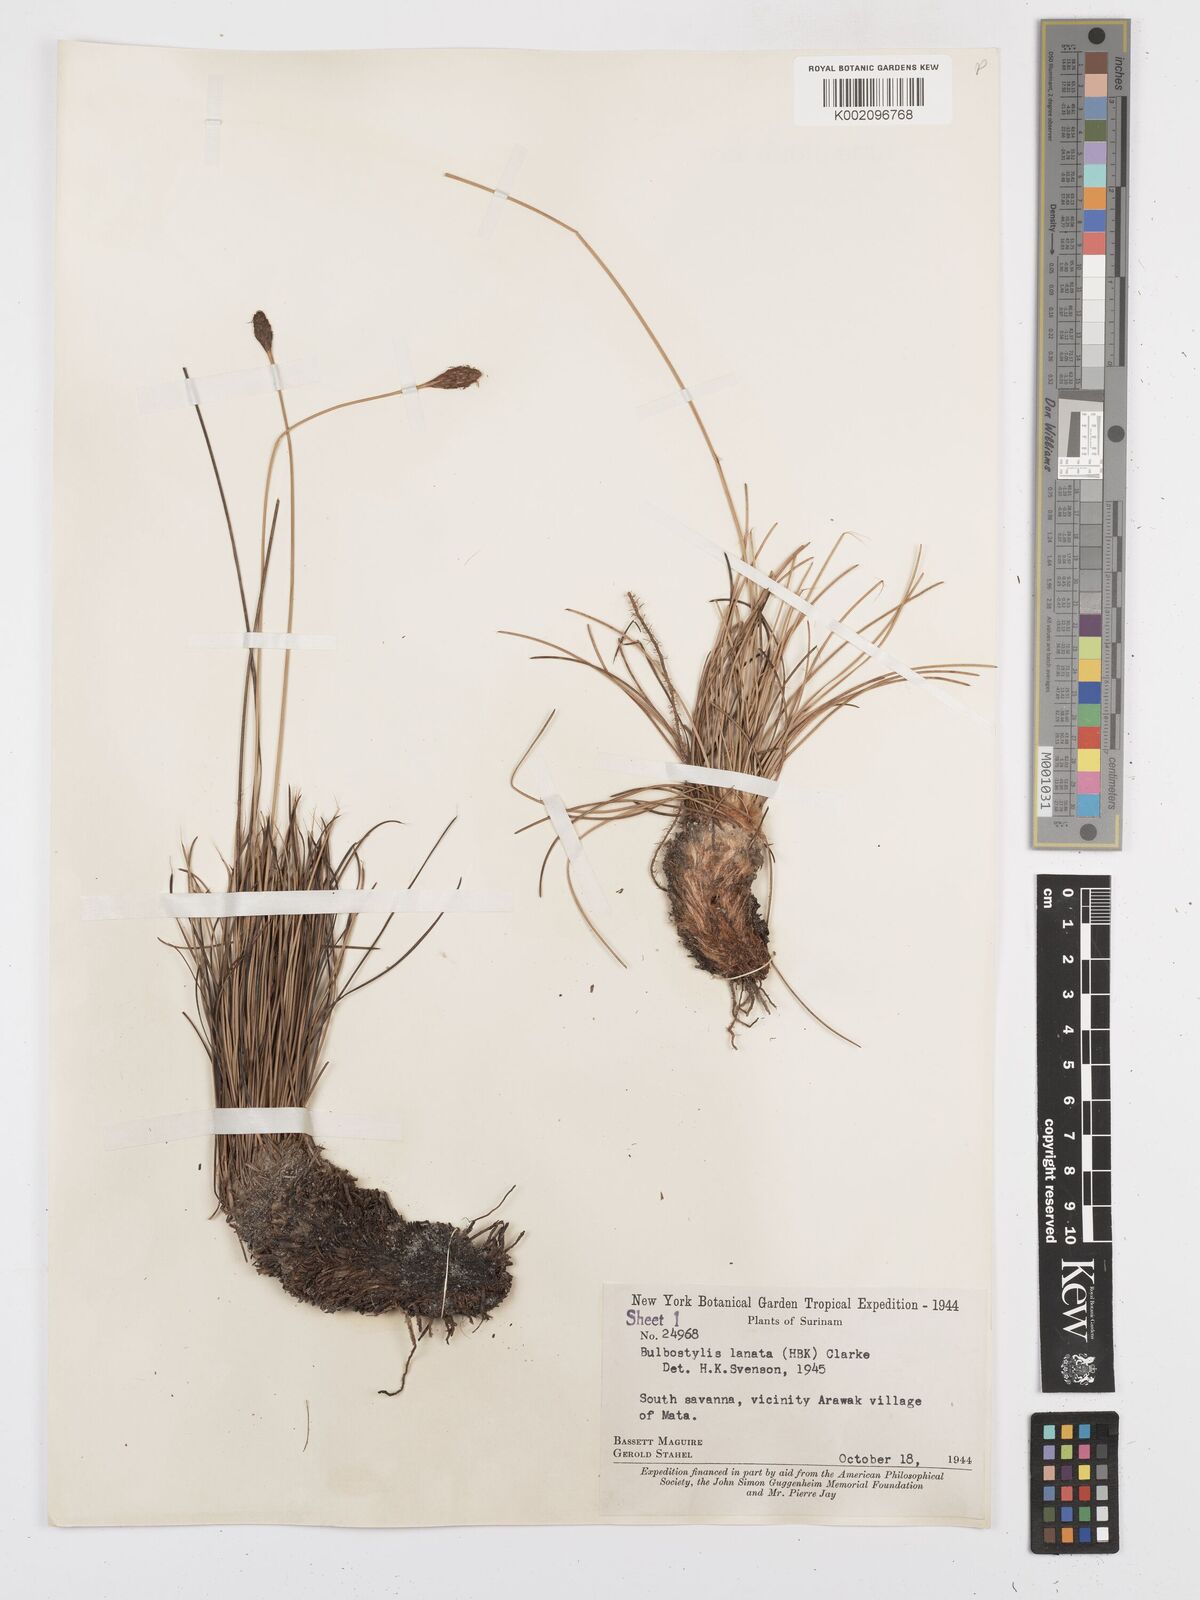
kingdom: Plantae
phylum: Tracheophyta
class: Liliopsida
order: Poales
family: Cyperaceae
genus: Bulbostylis
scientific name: Bulbostylis
